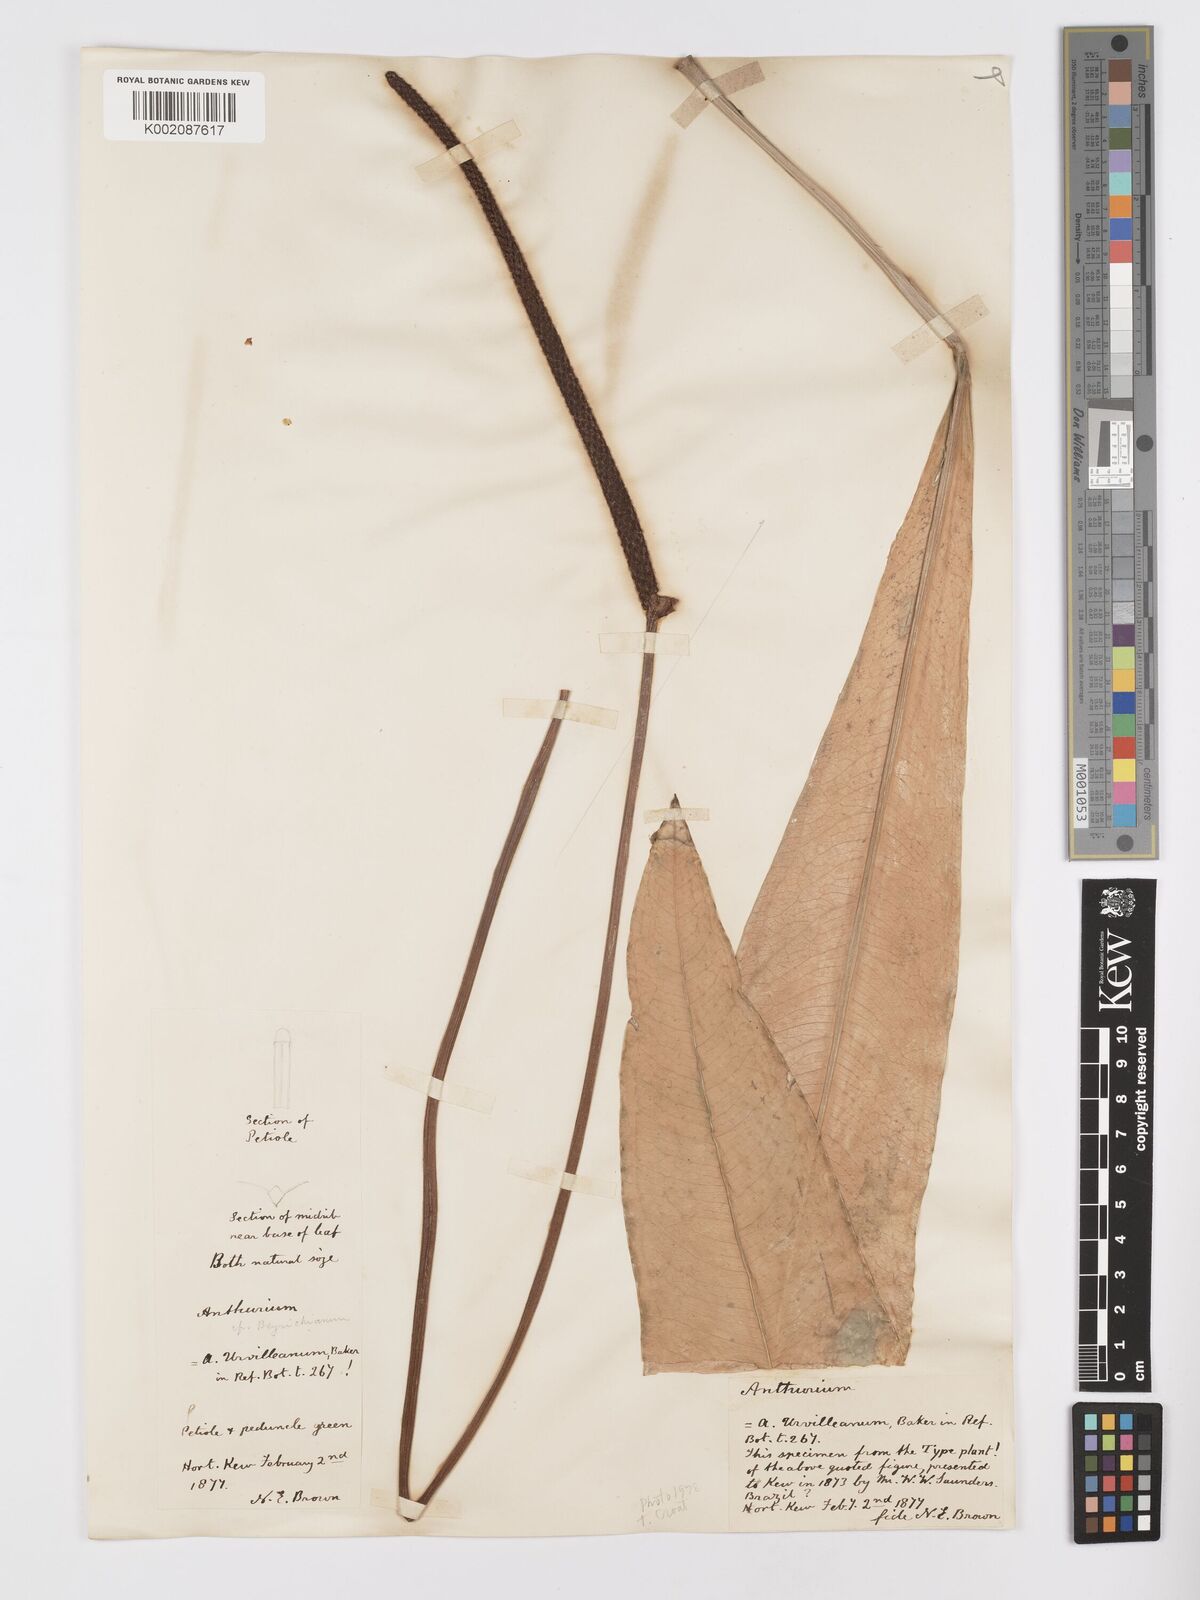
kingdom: Plantae
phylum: Tracheophyta
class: Liliopsida
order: Alismatales
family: Araceae
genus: Anthurium
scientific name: Anthurium intermedium
